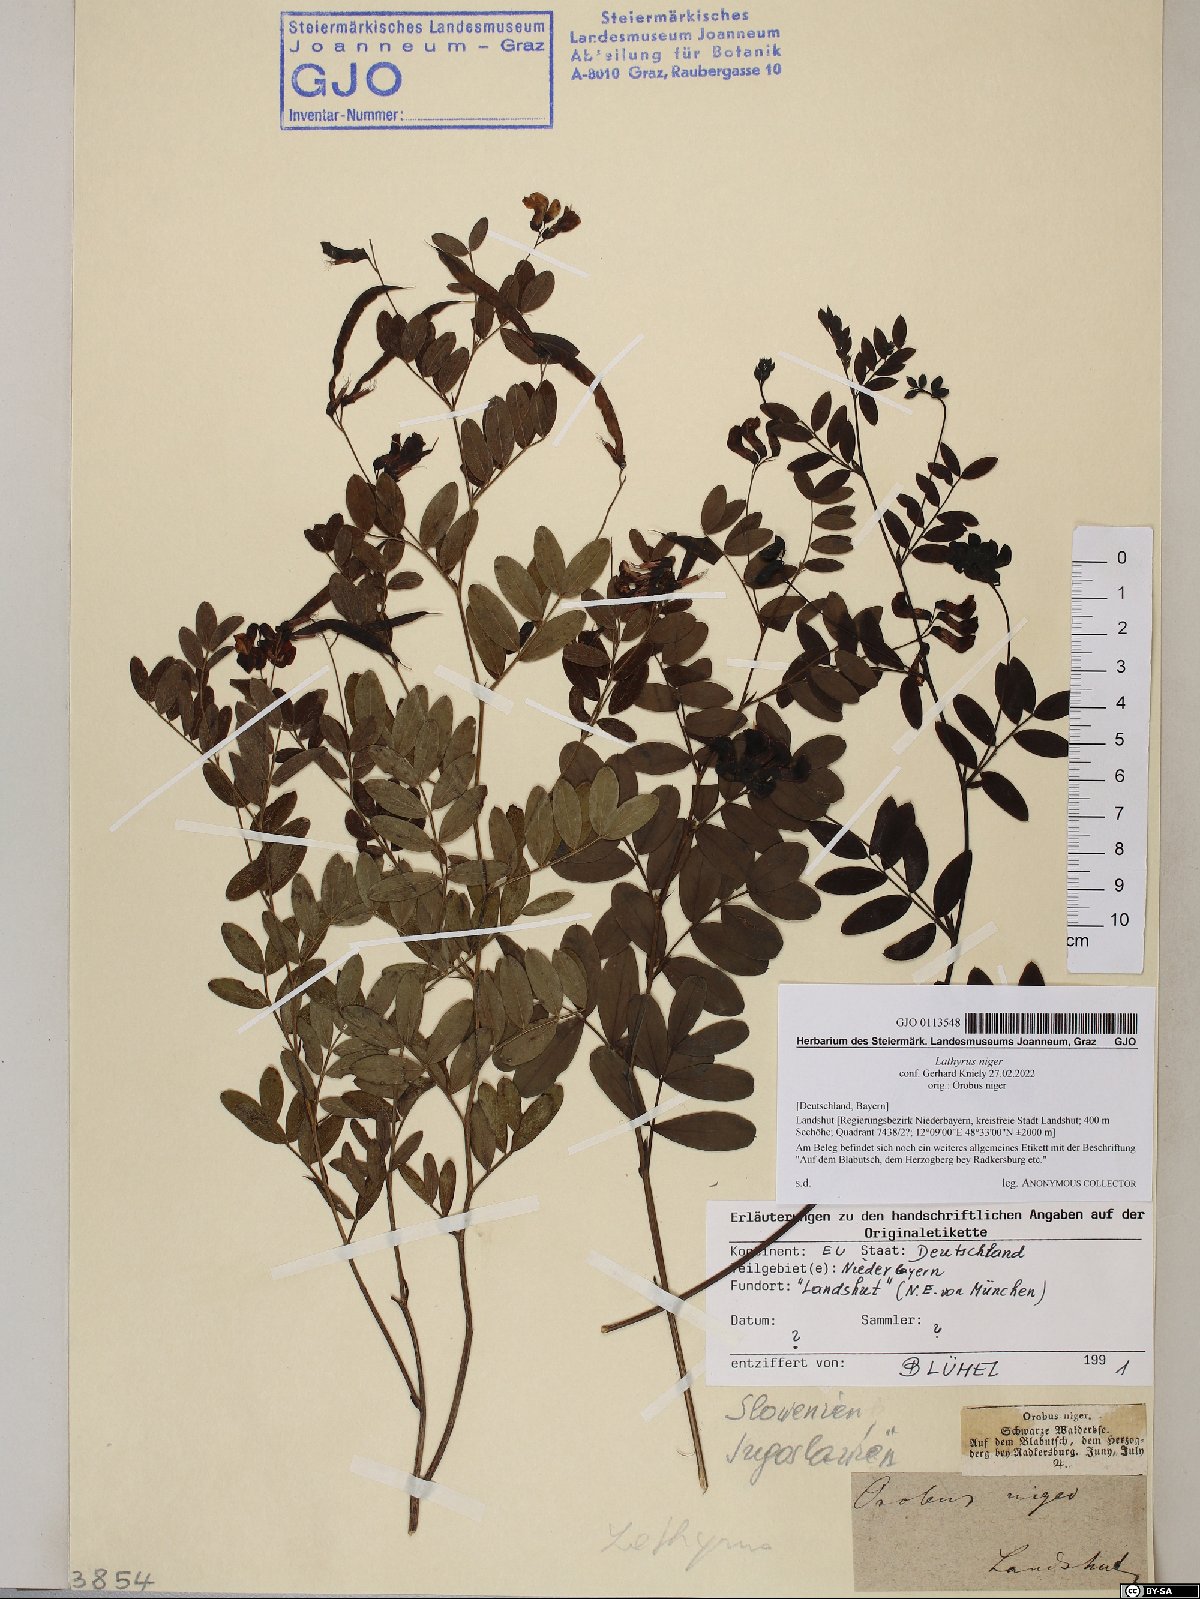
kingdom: Plantae
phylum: Tracheophyta
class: Magnoliopsida
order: Fabales
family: Fabaceae
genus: Lathyrus
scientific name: Lathyrus niger
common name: Black pea
